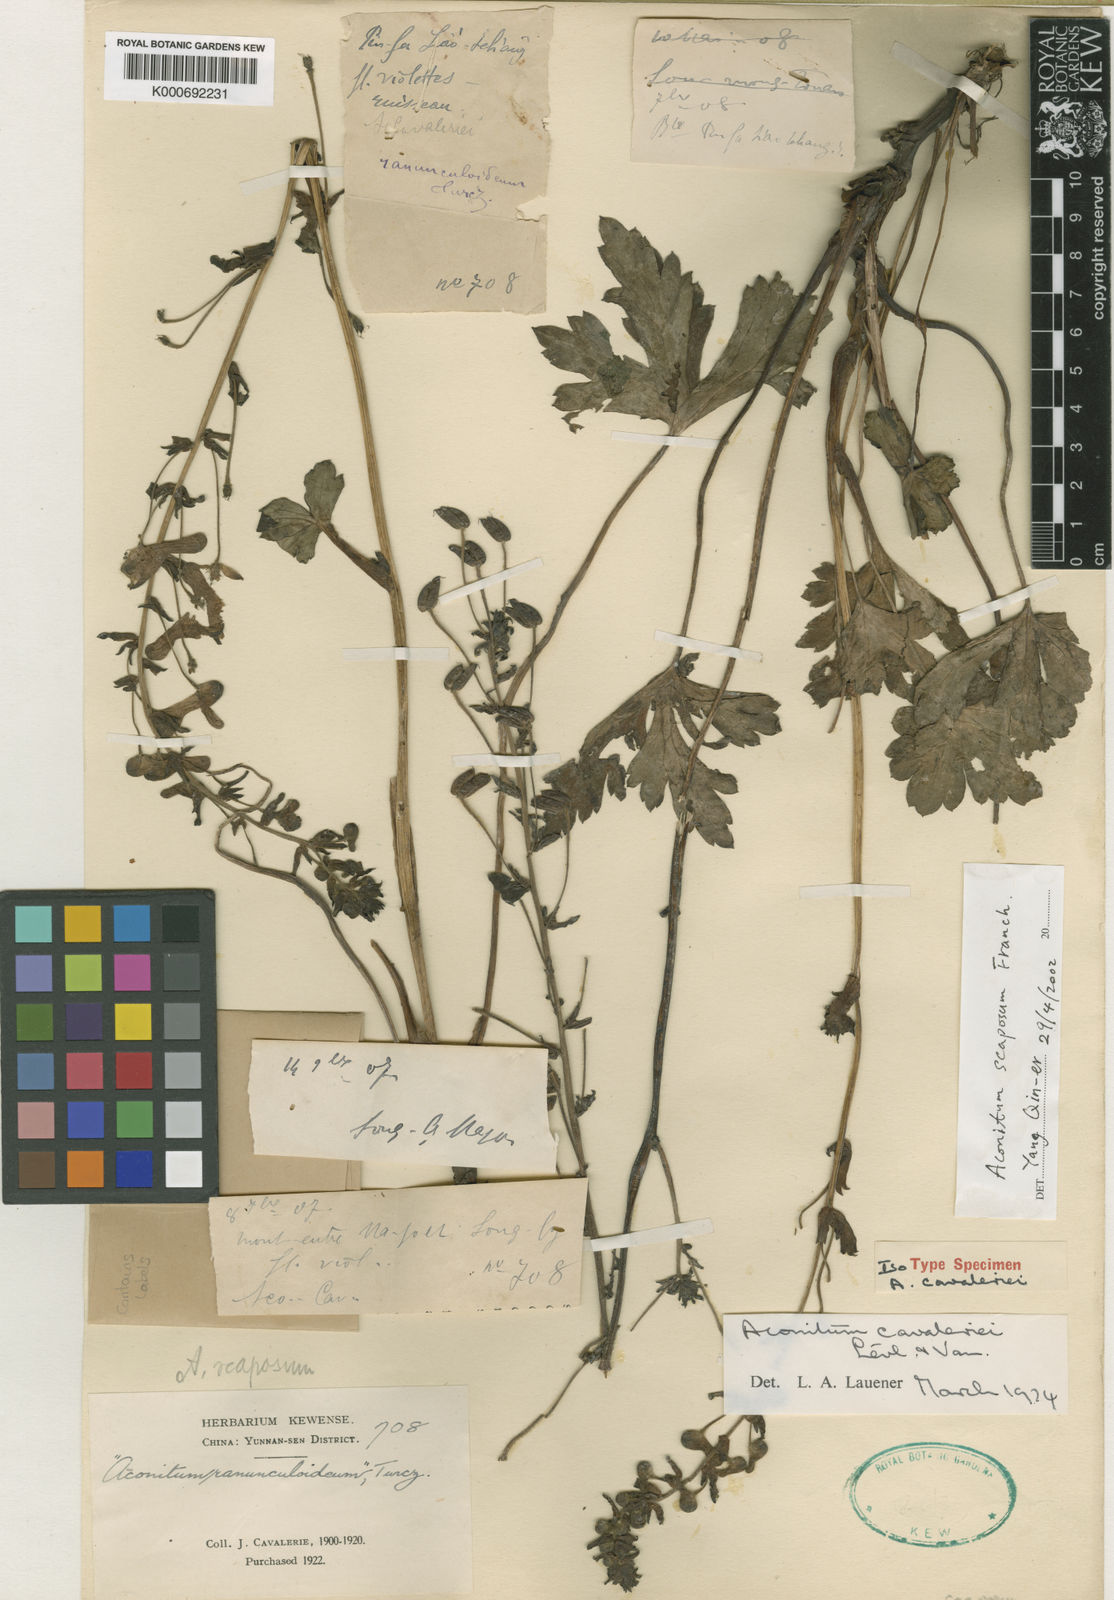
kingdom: Plantae
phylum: Tracheophyta
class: Magnoliopsida
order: Ranunculales
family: Ranunculaceae
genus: Aconitum
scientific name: Aconitum
